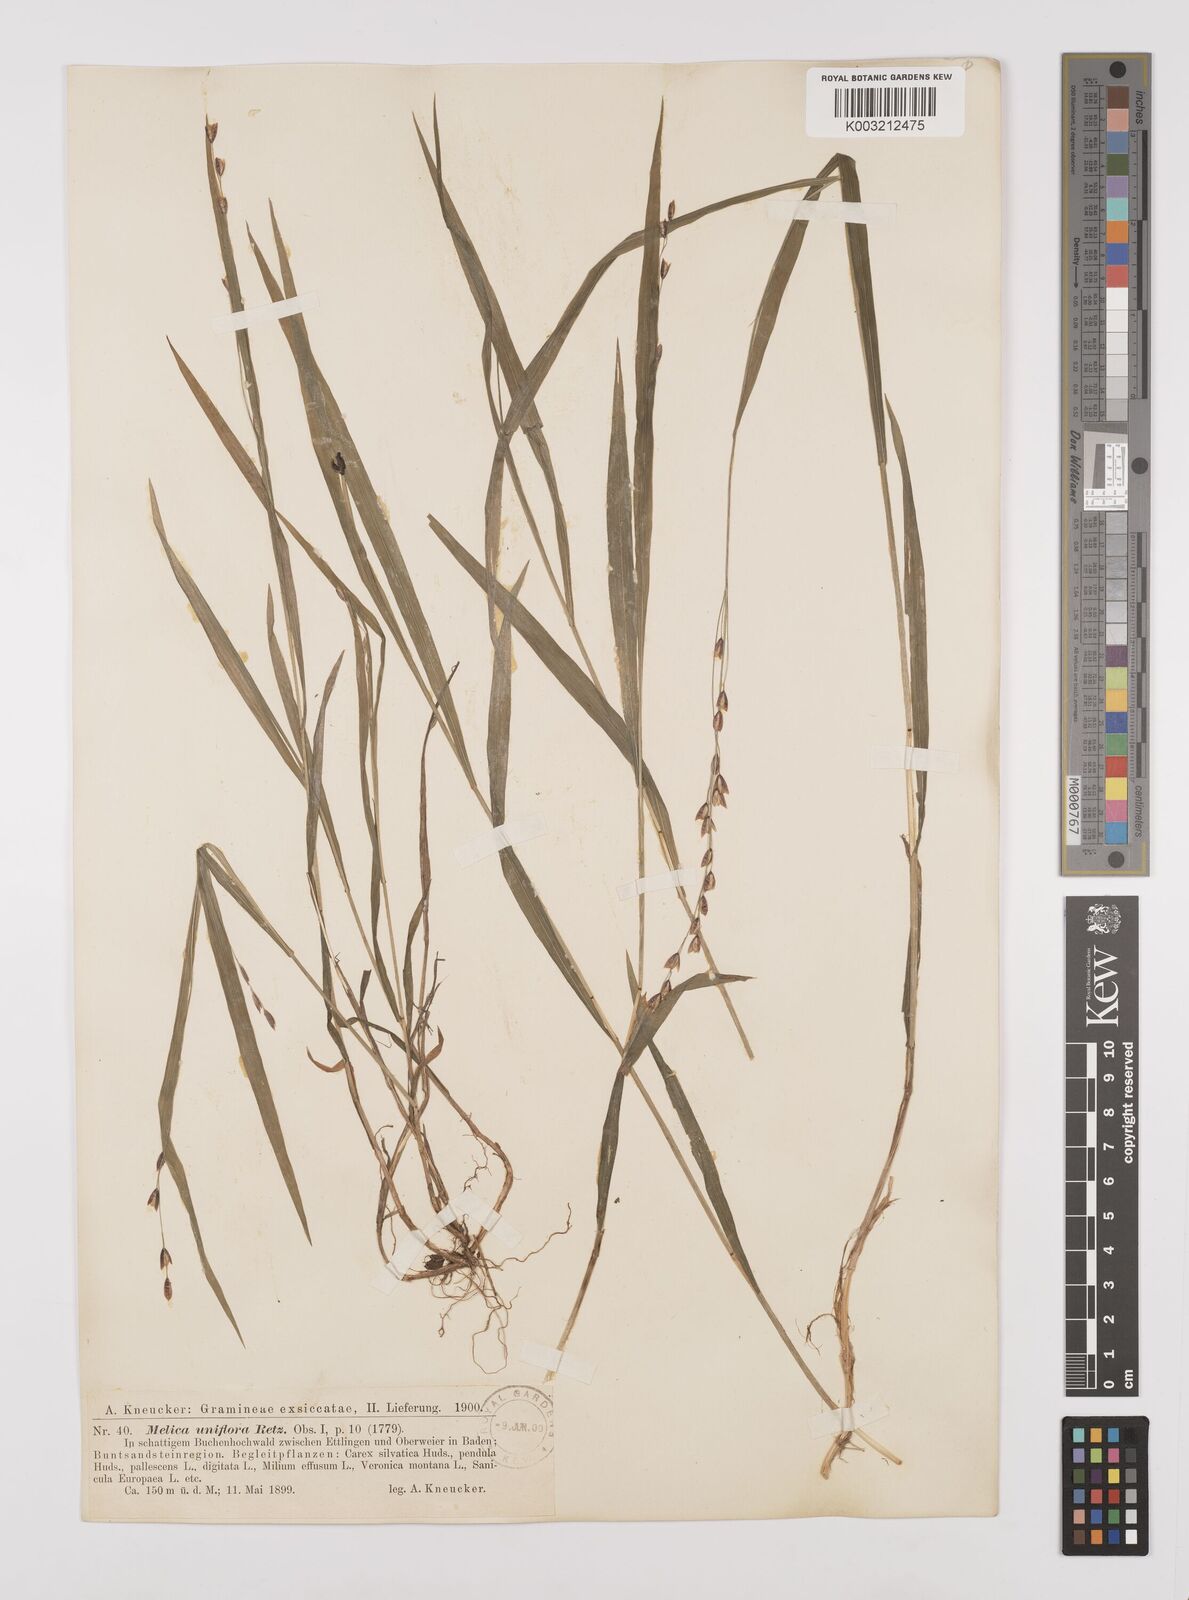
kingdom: Plantae
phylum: Tracheophyta
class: Liliopsida
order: Poales
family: Poaceae
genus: Melica
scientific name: Melica uniflora
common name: Wood melick
